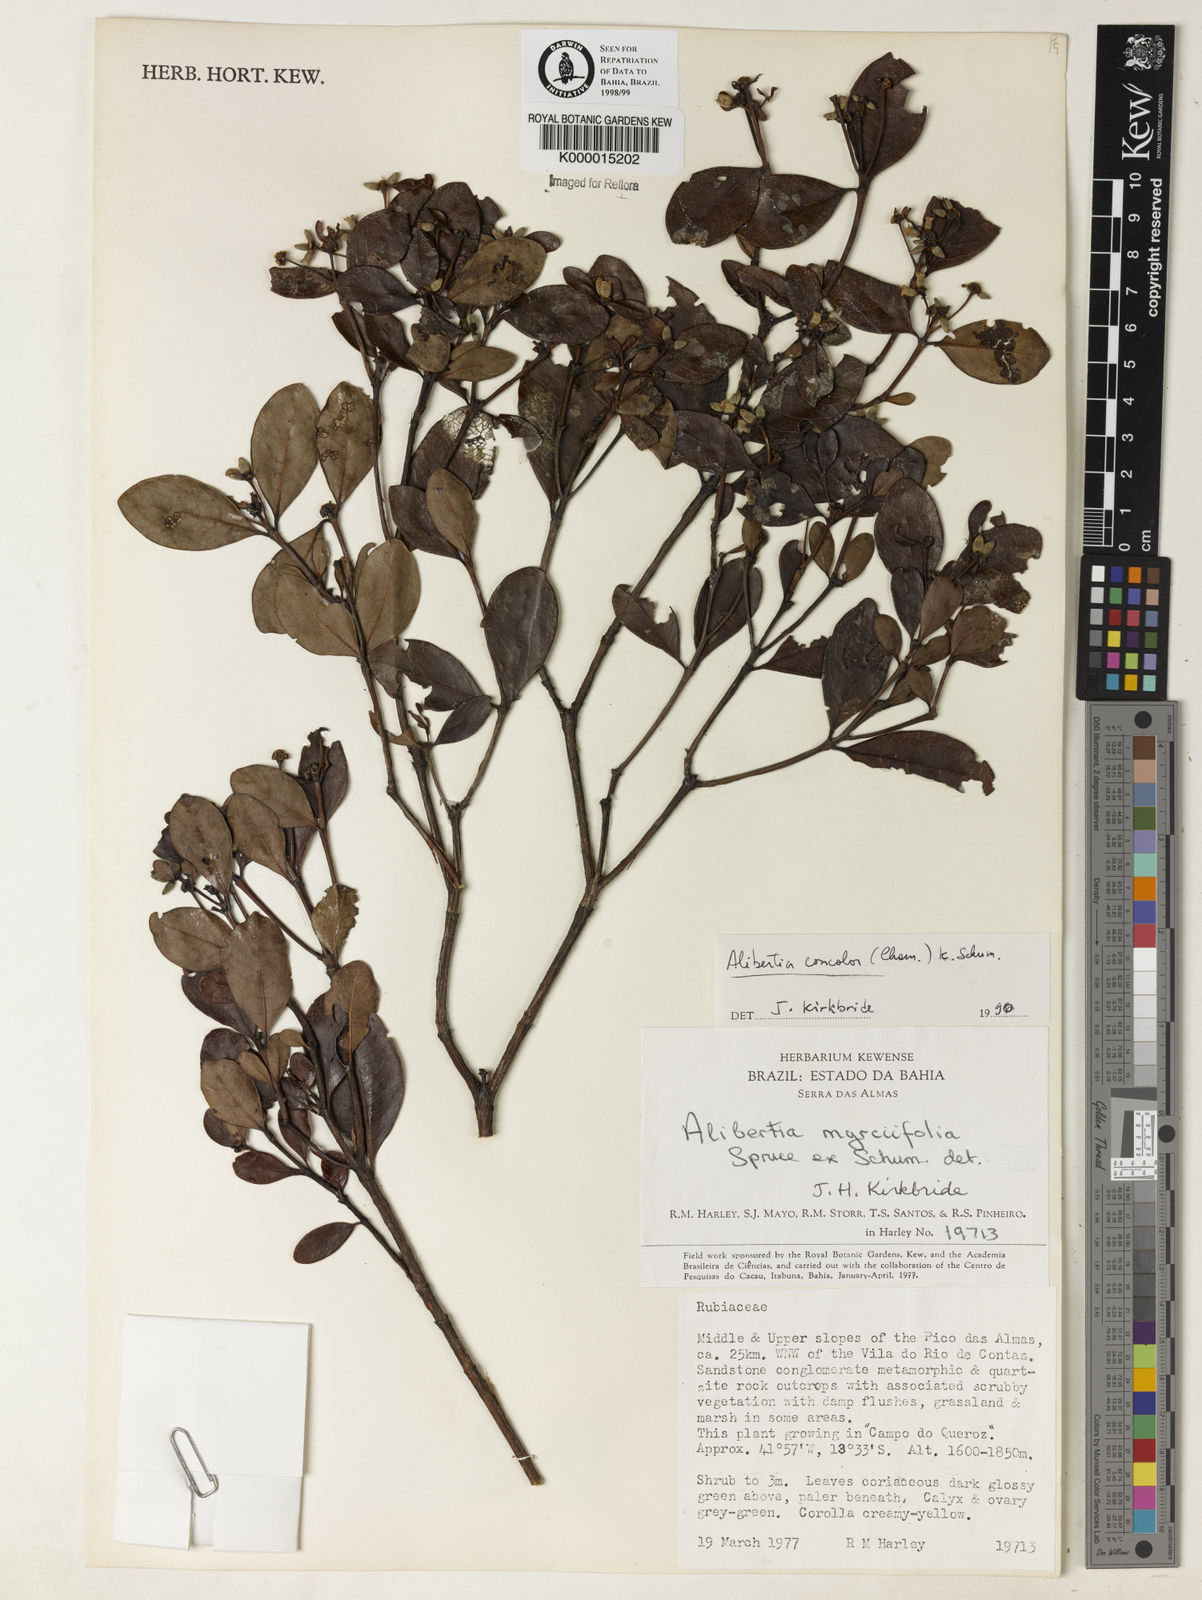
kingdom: Plantae
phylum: Tracheophyta
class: Magnoliopsida
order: Gentianales
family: Rubiaceae
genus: Cordiera
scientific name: Cordiera concolor
